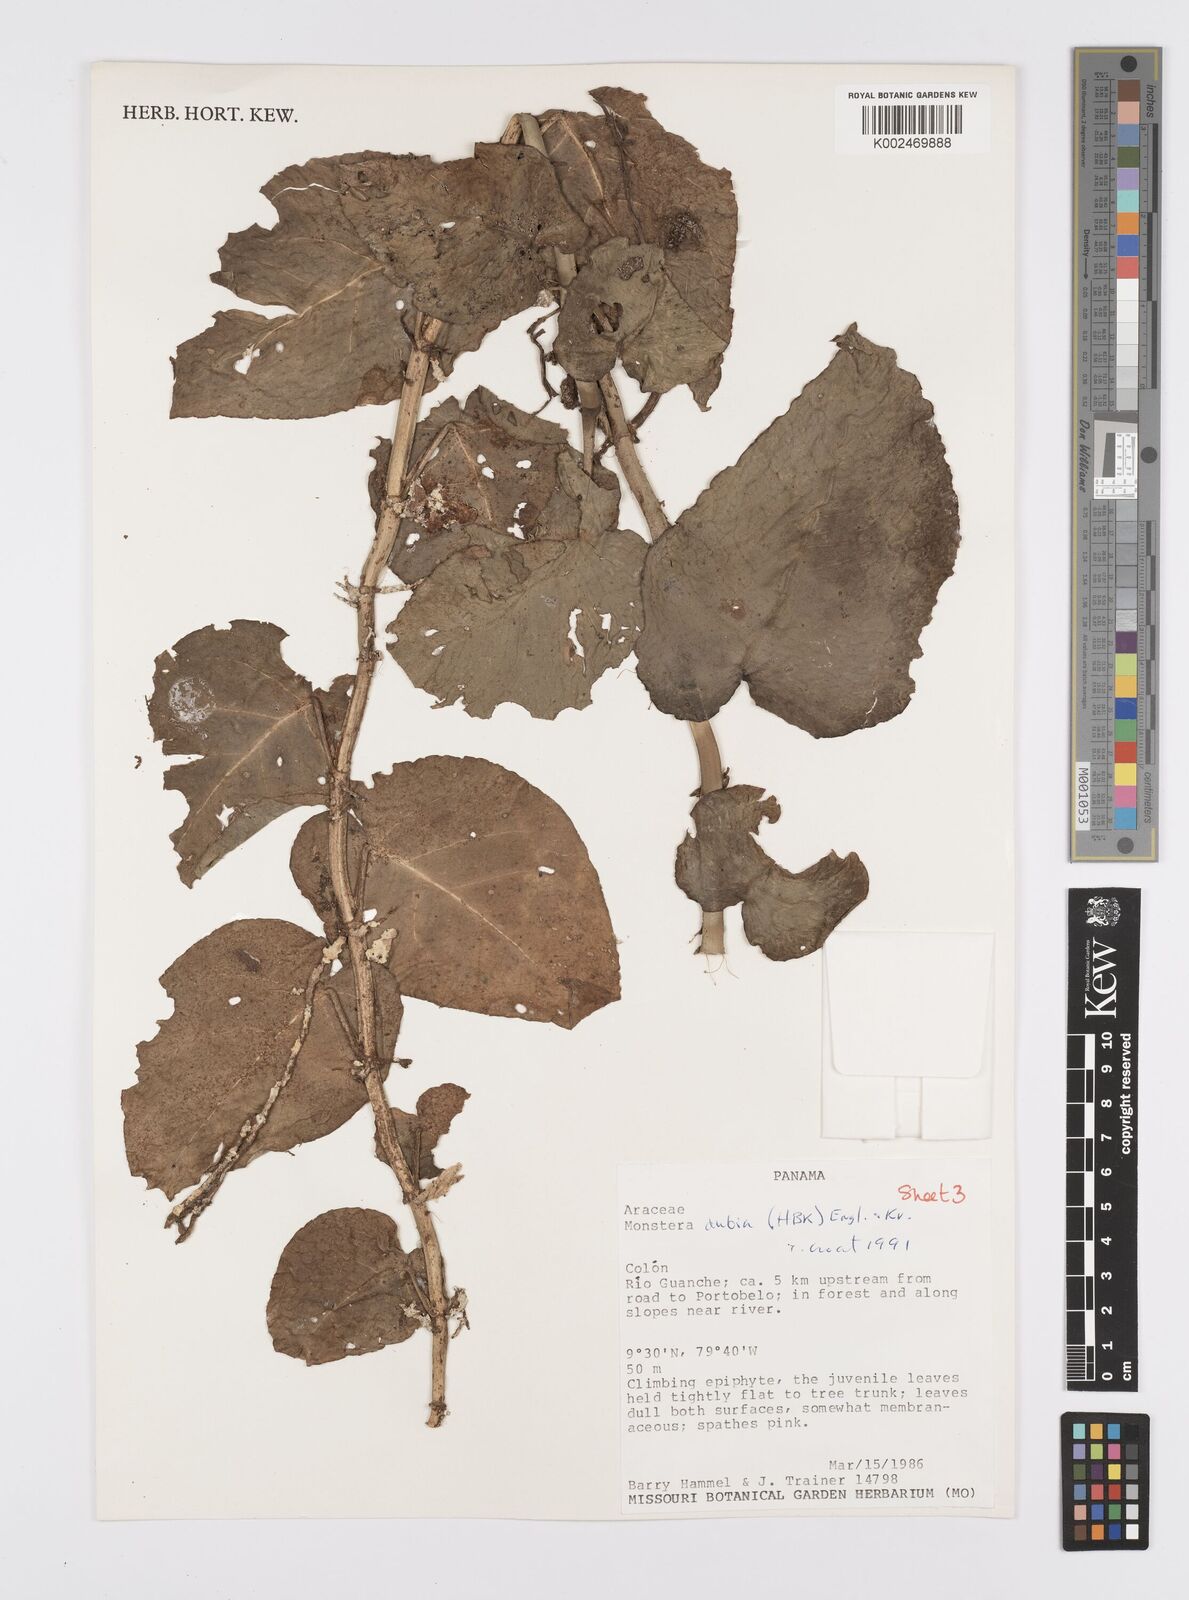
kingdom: Plantae
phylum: Tracheophyta
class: Liliopsida
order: Alismatales
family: Araceae
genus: Monstera
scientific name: Monstera dubia
